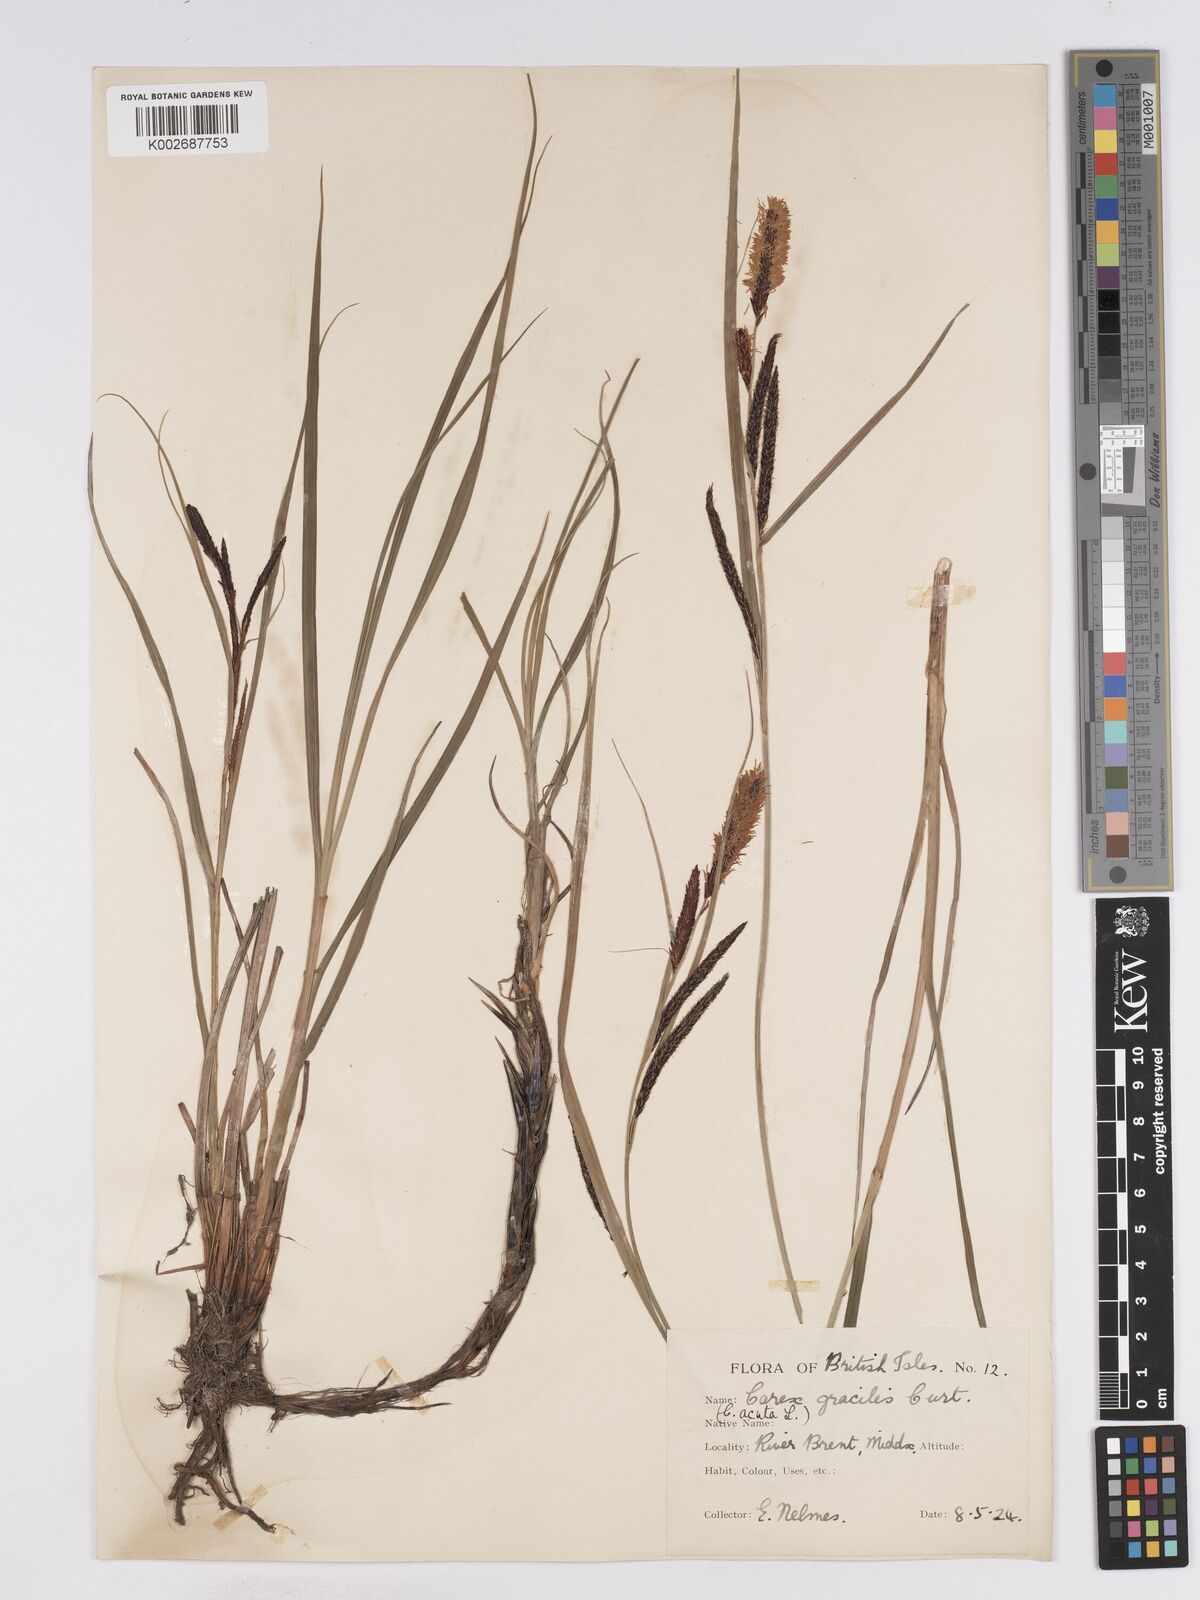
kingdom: Plantae
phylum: Tracheophyta
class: Liliopsida
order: Poales
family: Cyperaceae
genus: Carex
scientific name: Carex acuta
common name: Slender tufted-sedge
